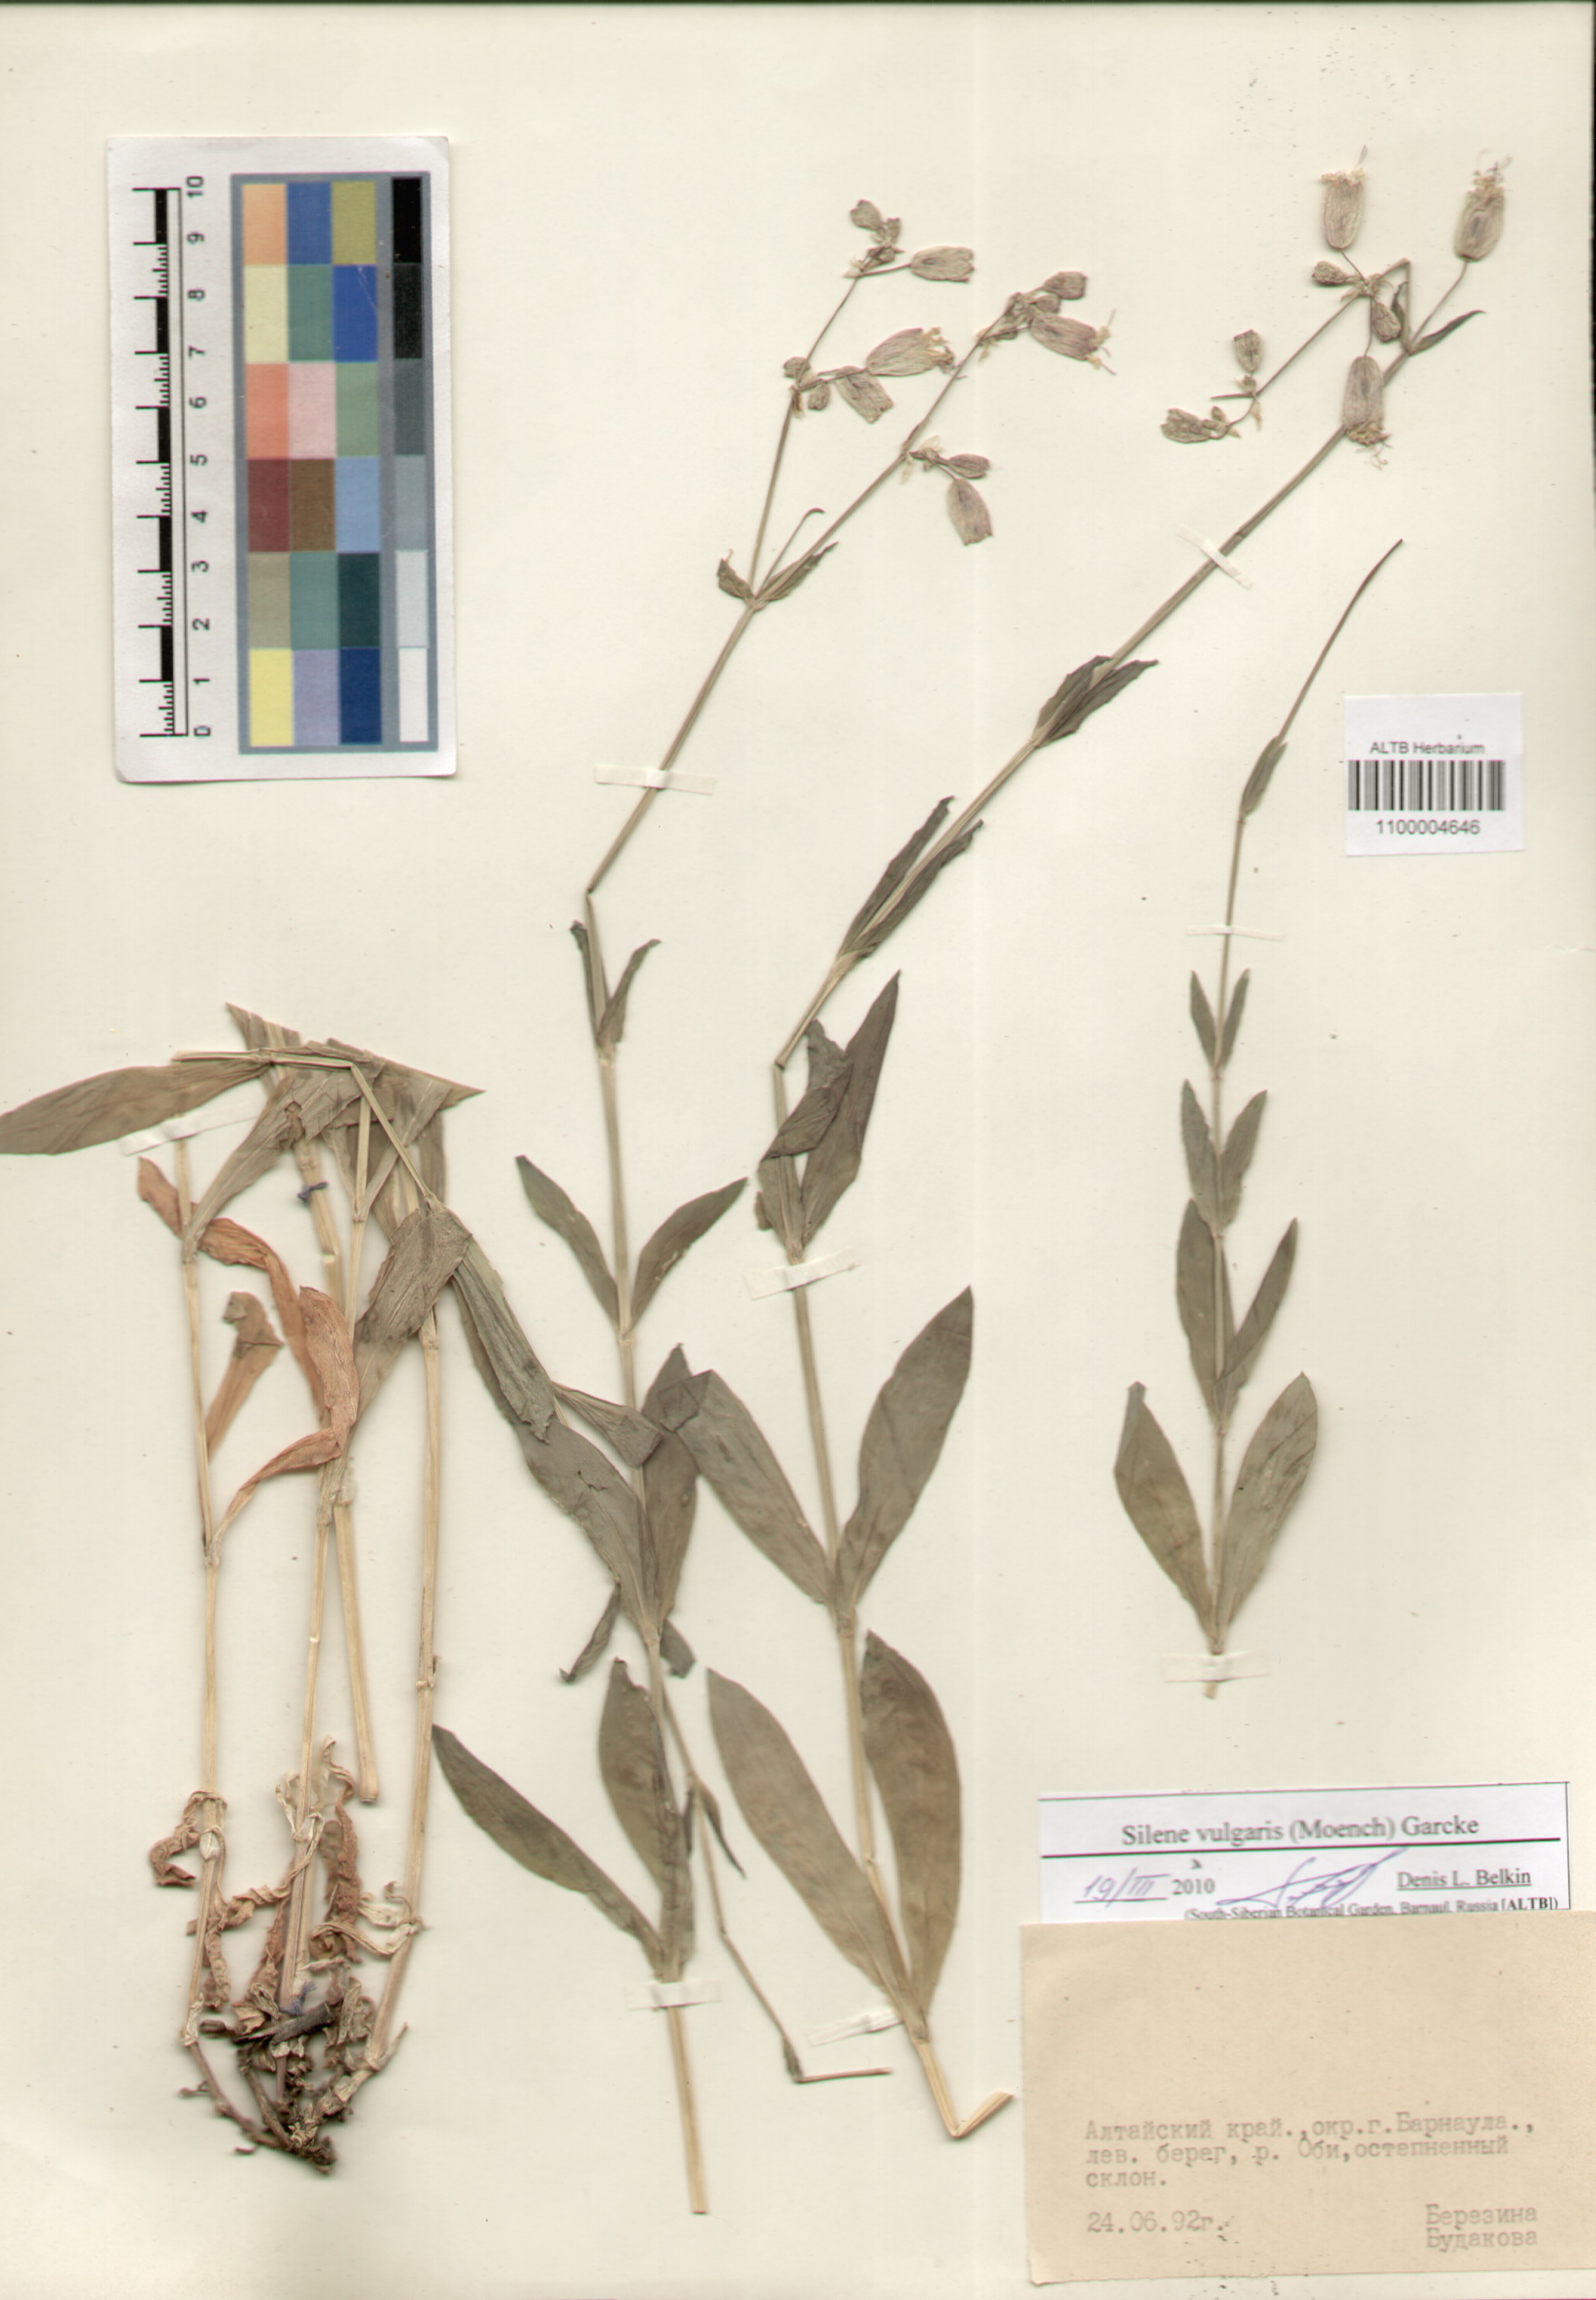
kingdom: Plantae
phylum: Tracheophyta
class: Magnoliopsida
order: Caryophyllales
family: Caryophyllaceae
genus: Silene
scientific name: Silene vulgaris
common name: Bladder campion
